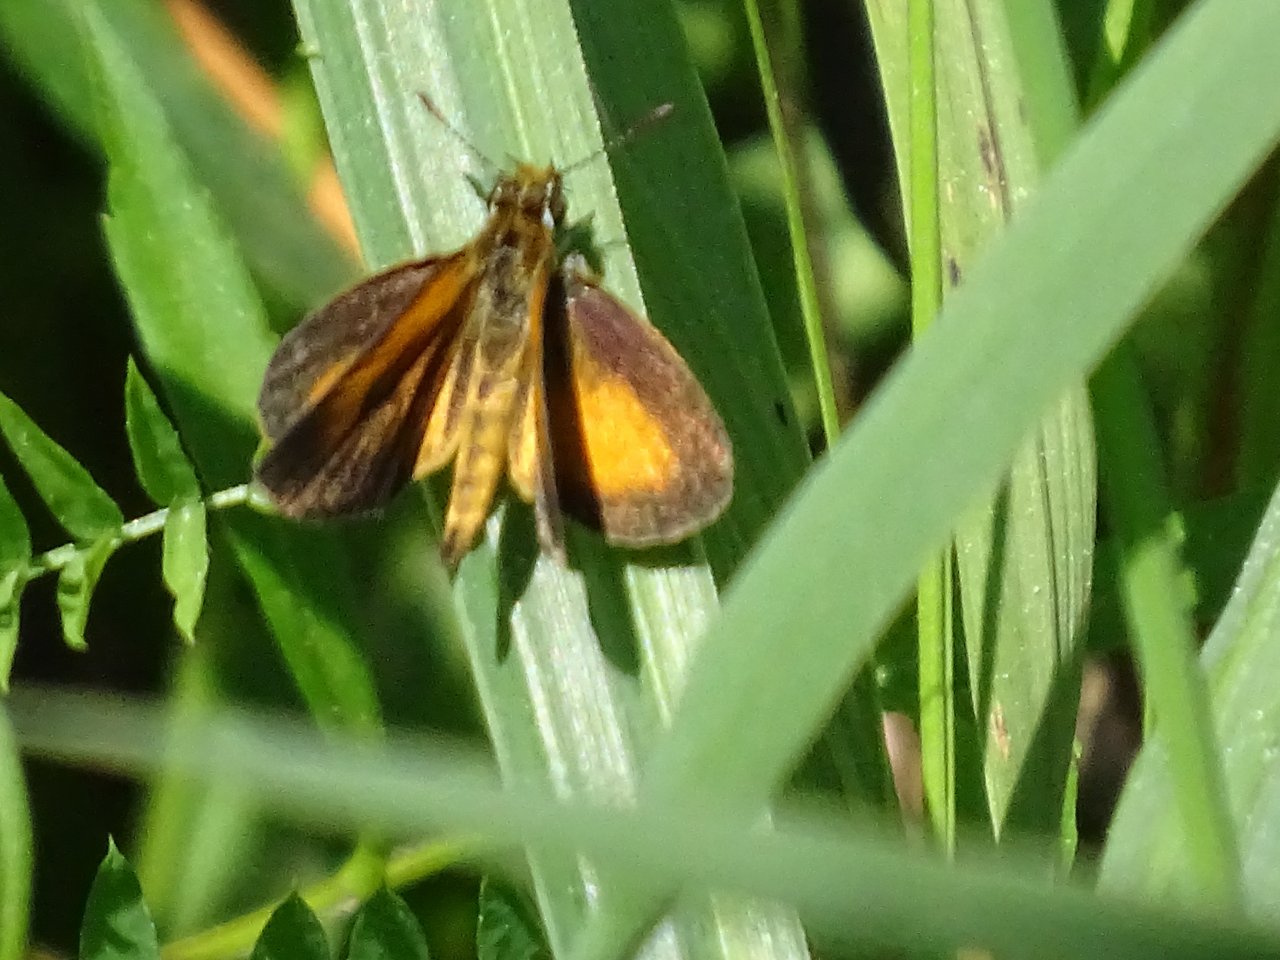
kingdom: Animalia
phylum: Arthropoda
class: Insecta
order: Lepidoptera
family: Hesperiidae
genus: Ancyloxypha
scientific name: Ancyloxypha numitor
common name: Least Skipper
